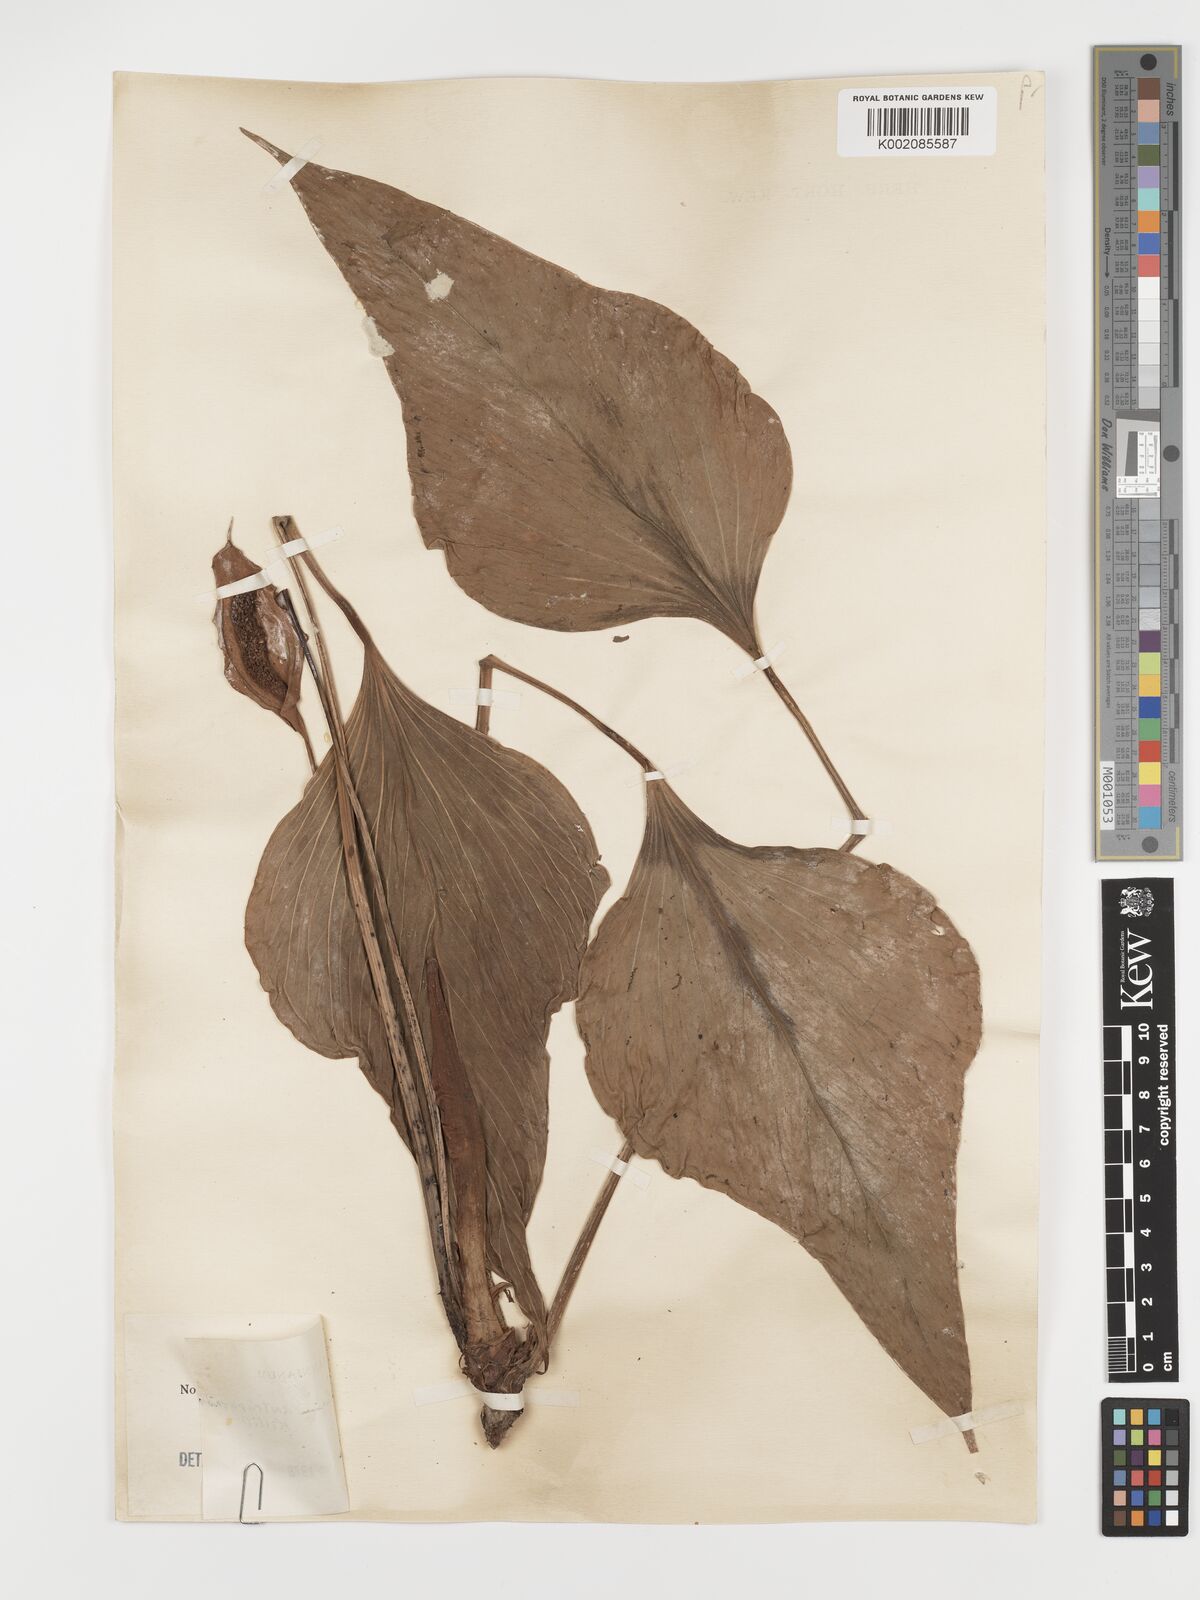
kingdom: Plantae
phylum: Tracheophyta
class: Liliopsida
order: Alismatales
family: Araceae
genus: Anthurium
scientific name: Anthurium antrophyoides
